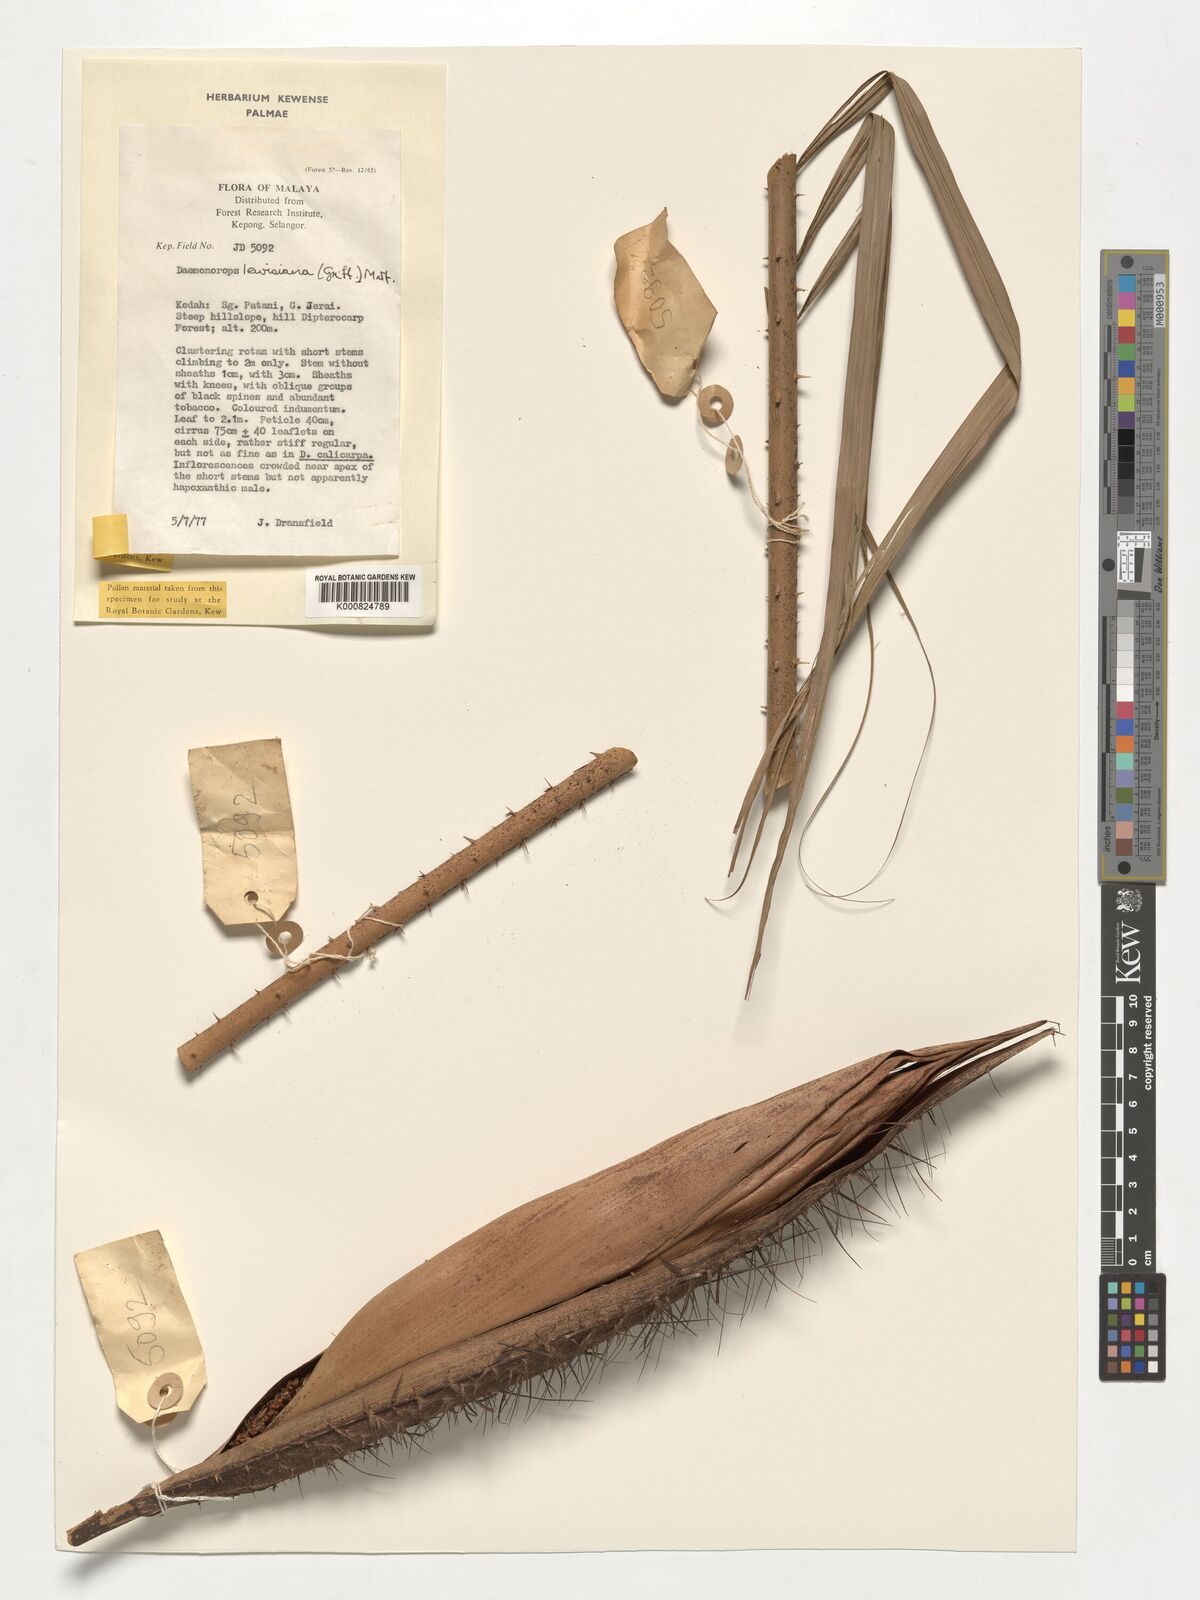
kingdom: Plantae
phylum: Tracheophyta
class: Liliopsida
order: Arecales
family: Arecaceae
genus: Calamus
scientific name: Calamus melanochaetes
